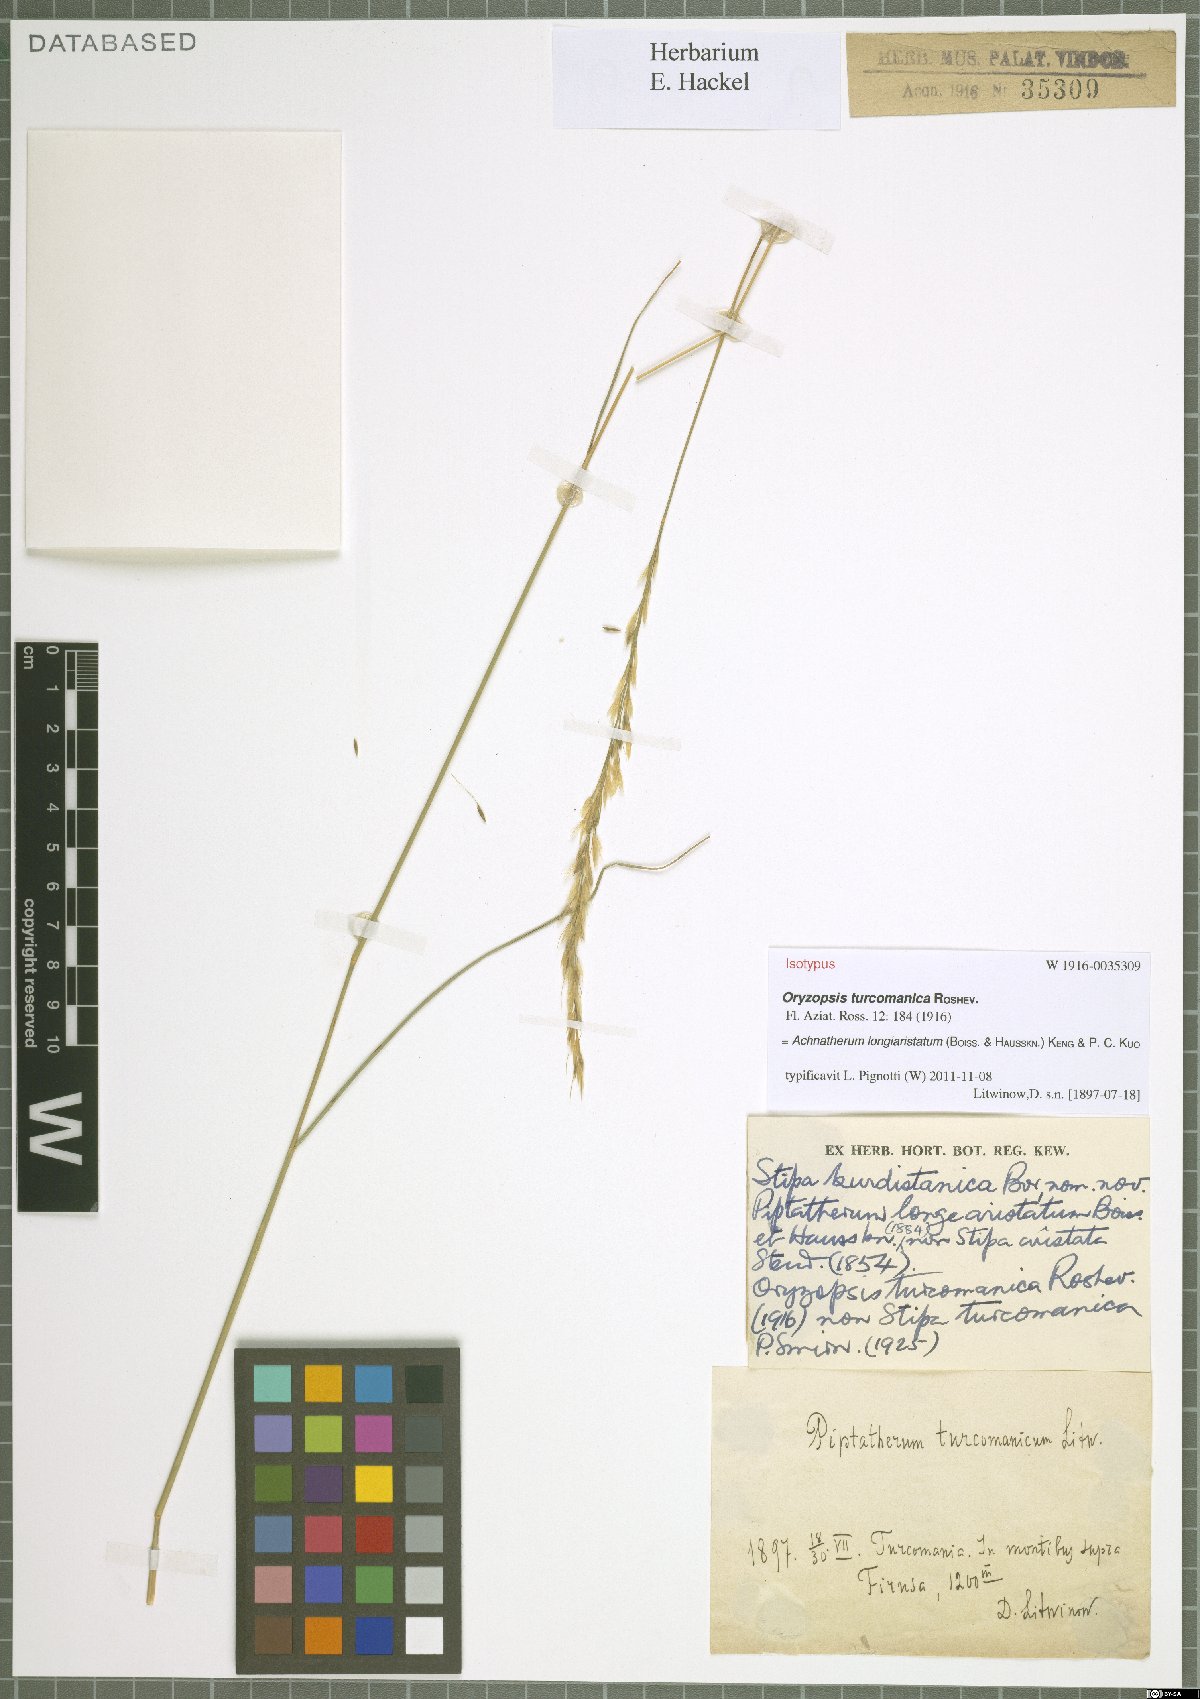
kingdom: Plantae
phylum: Tracheophyta
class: Liliopsida
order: Poales
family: Poaceae
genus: Achnatherum
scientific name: Achnatherum turcomanicum
